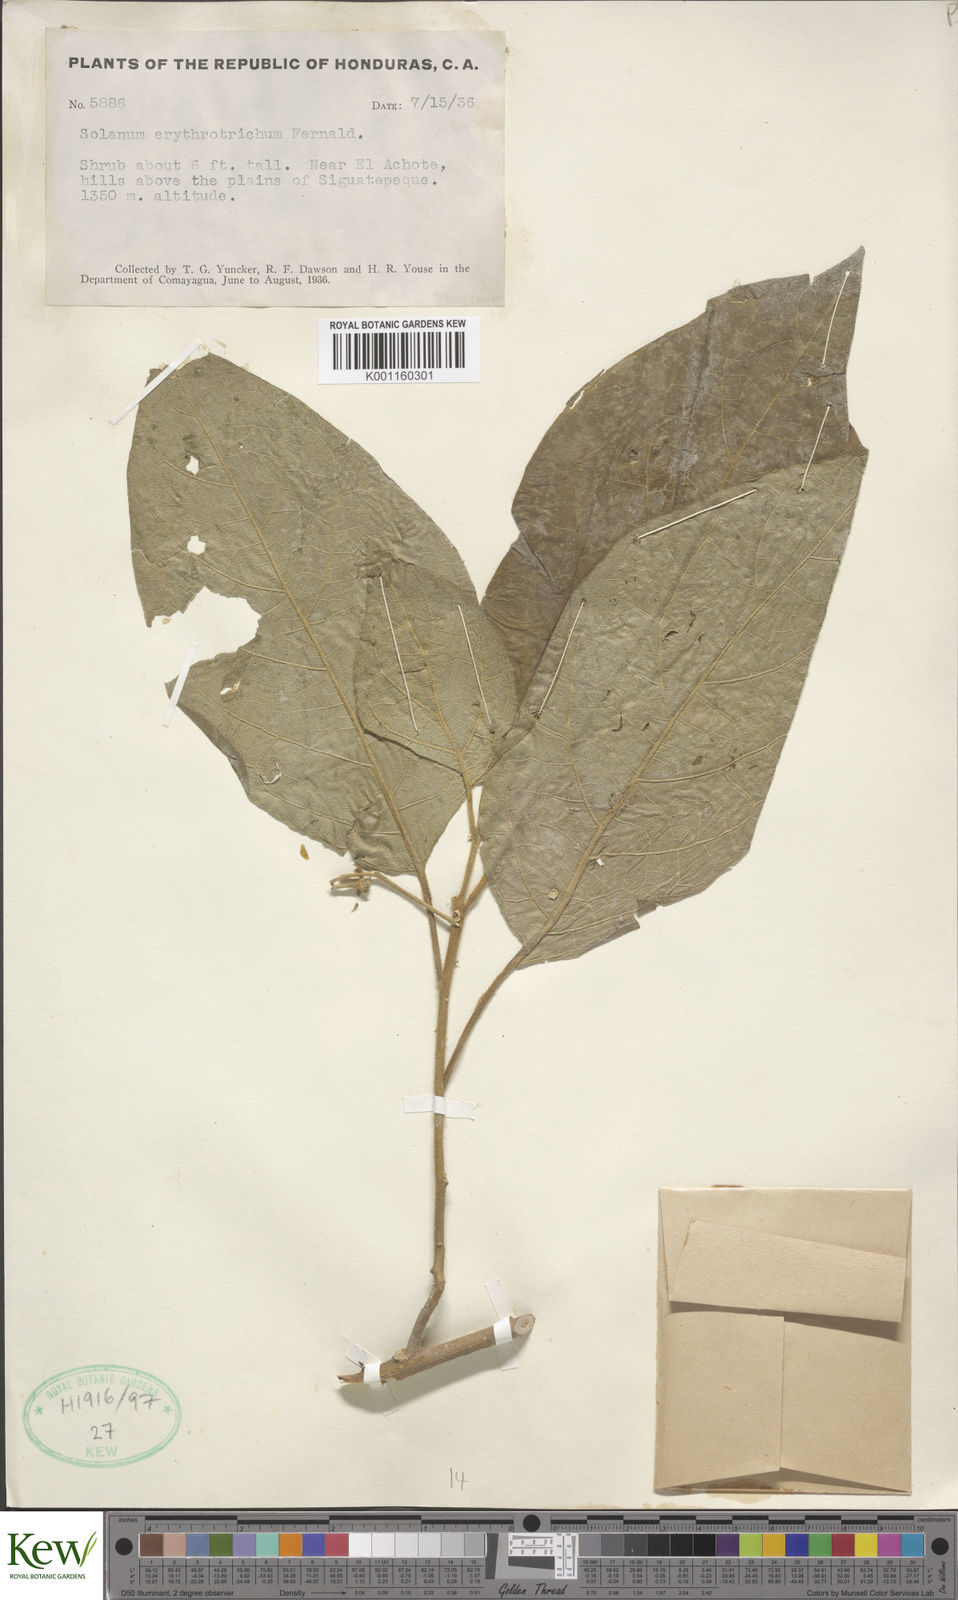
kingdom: Plantae
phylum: Tracheophyta
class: Magnoliopsida
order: Solanales
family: Solanaceae
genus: Solanum
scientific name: Solanum erythrotrichum
